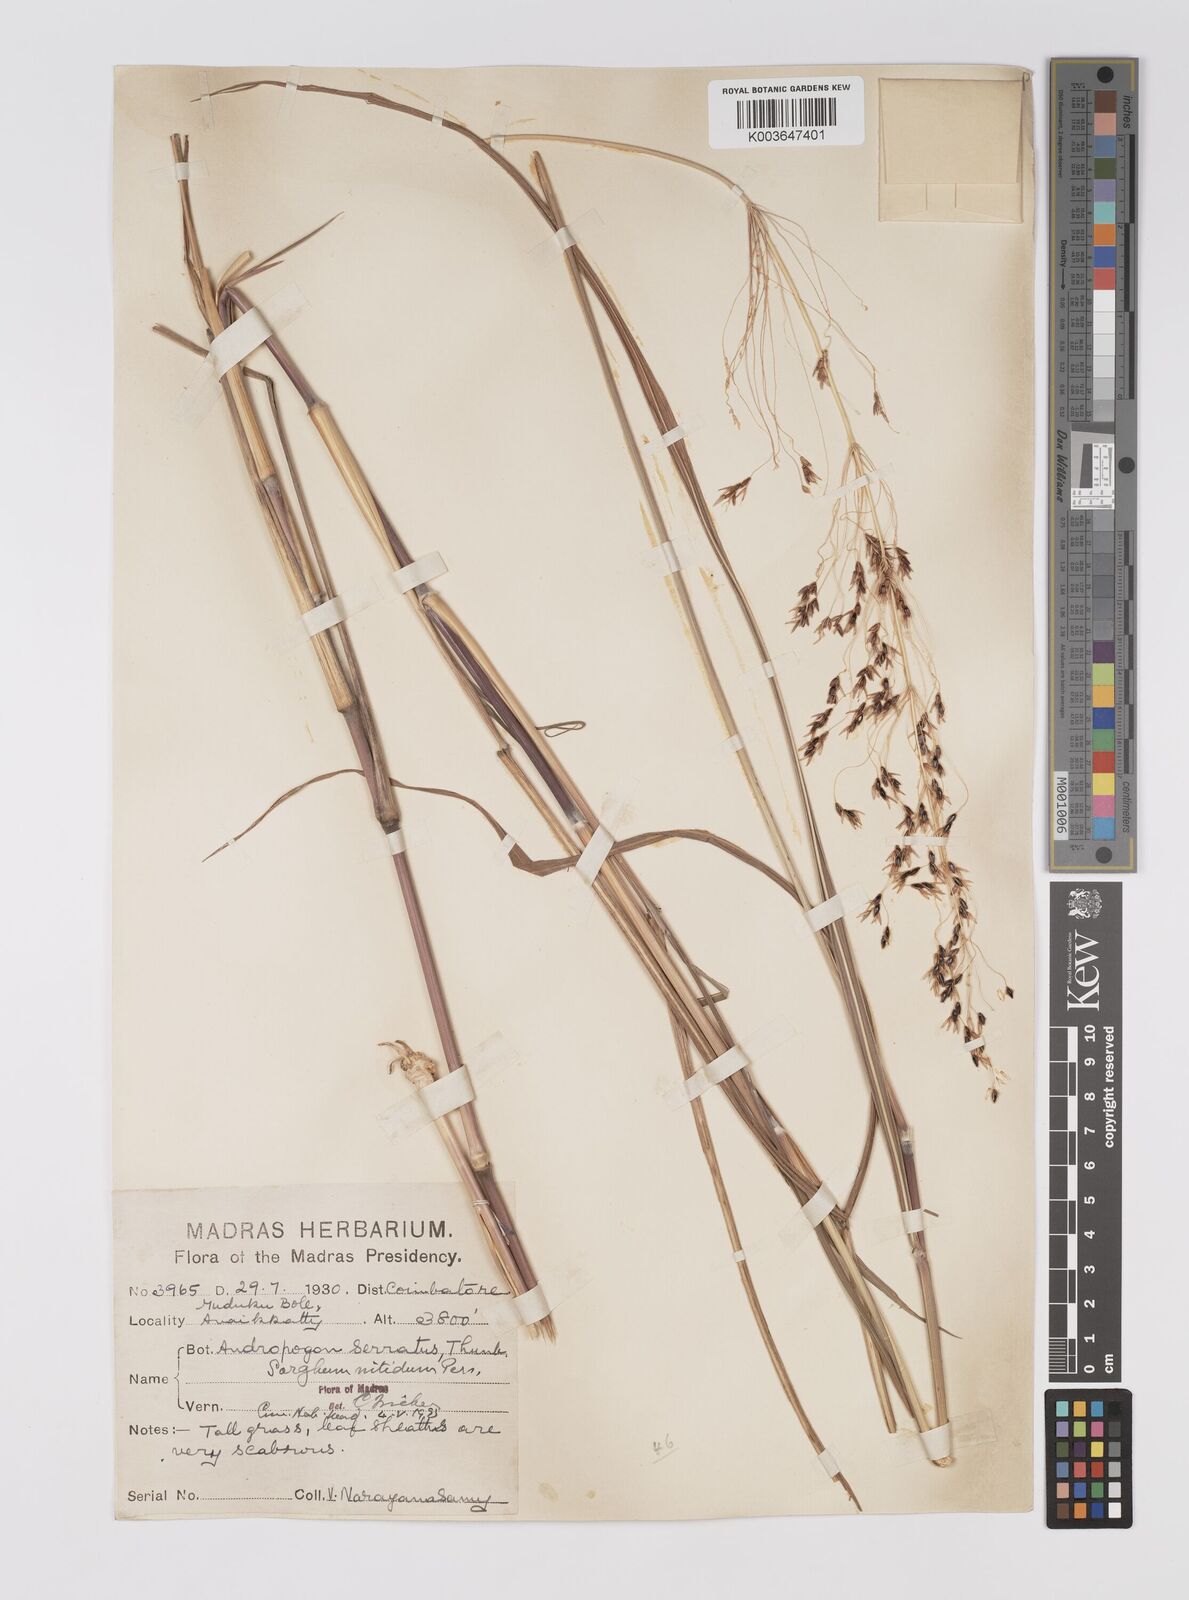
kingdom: Plantae
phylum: Tracheophyta
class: Liliopsida
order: Poales
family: Poaceae
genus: Sorghum
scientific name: Sorghum nitidum
